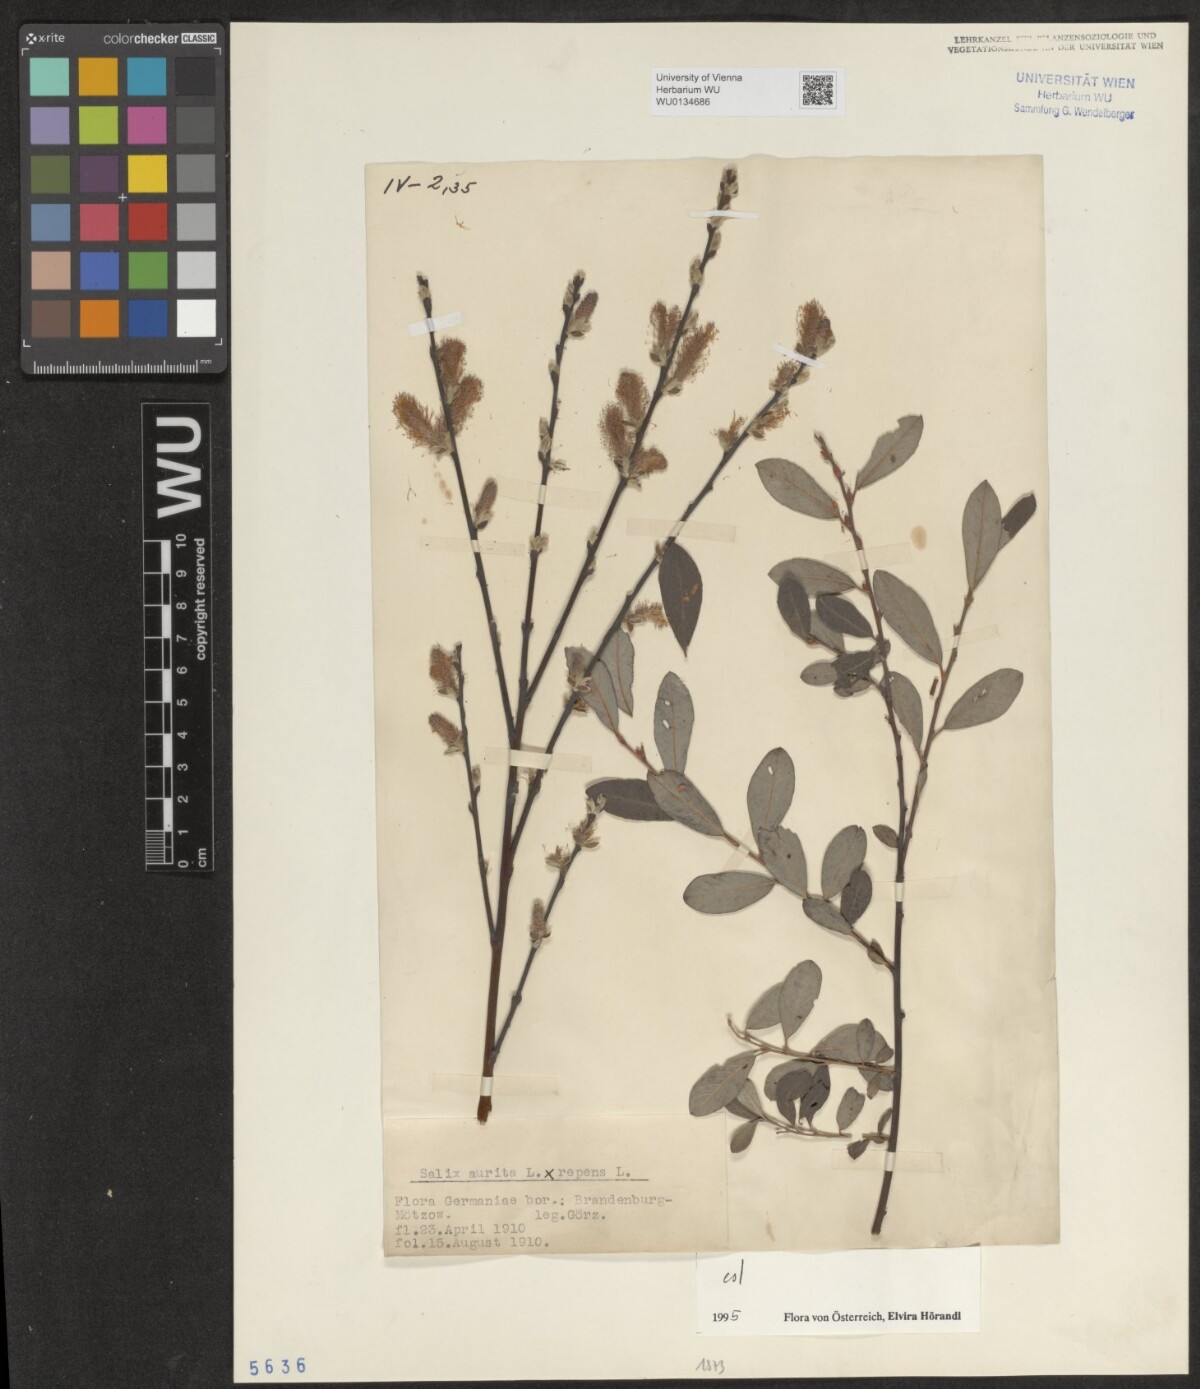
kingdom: Plantae
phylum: Tracheophyta
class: Magnoliopsida
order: Malpighiales
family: Salicaceae
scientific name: Salicaceae
